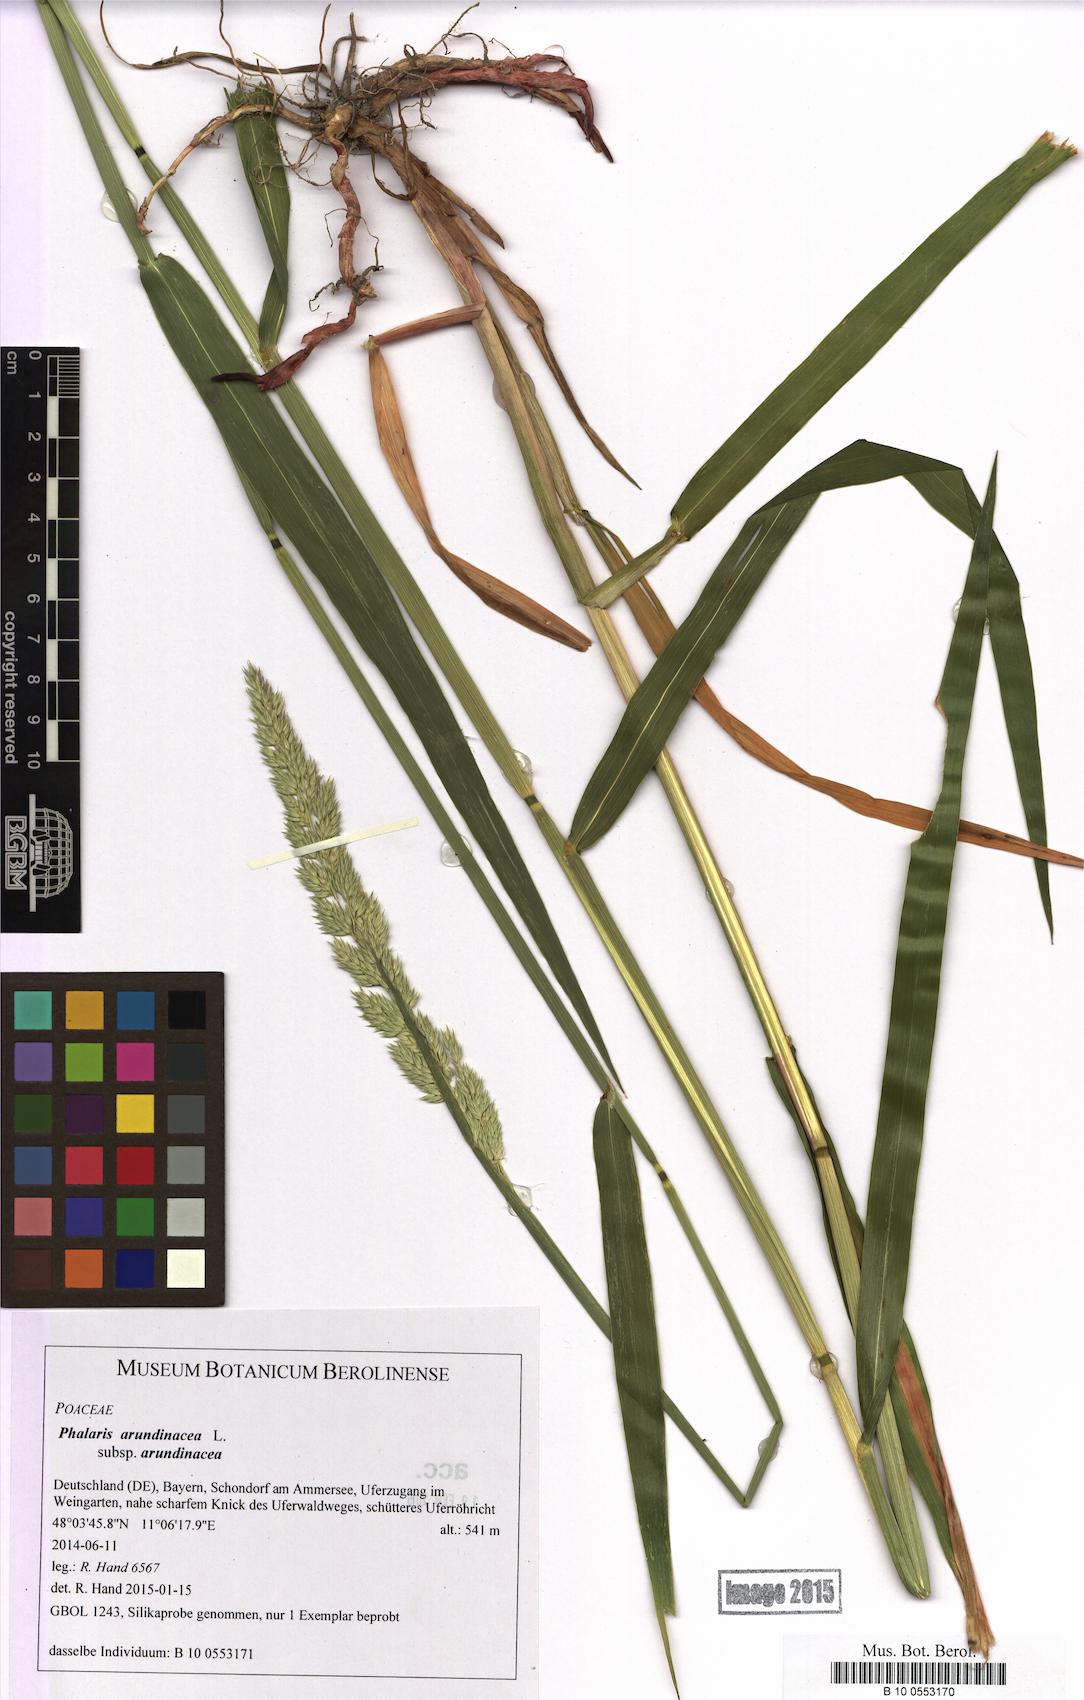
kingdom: Plantae
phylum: Tracheophyta
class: Liliopsida
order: Poales
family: Poaceae
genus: Phalaris
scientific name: Phalaris arundinacea
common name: Reed canary-grass
